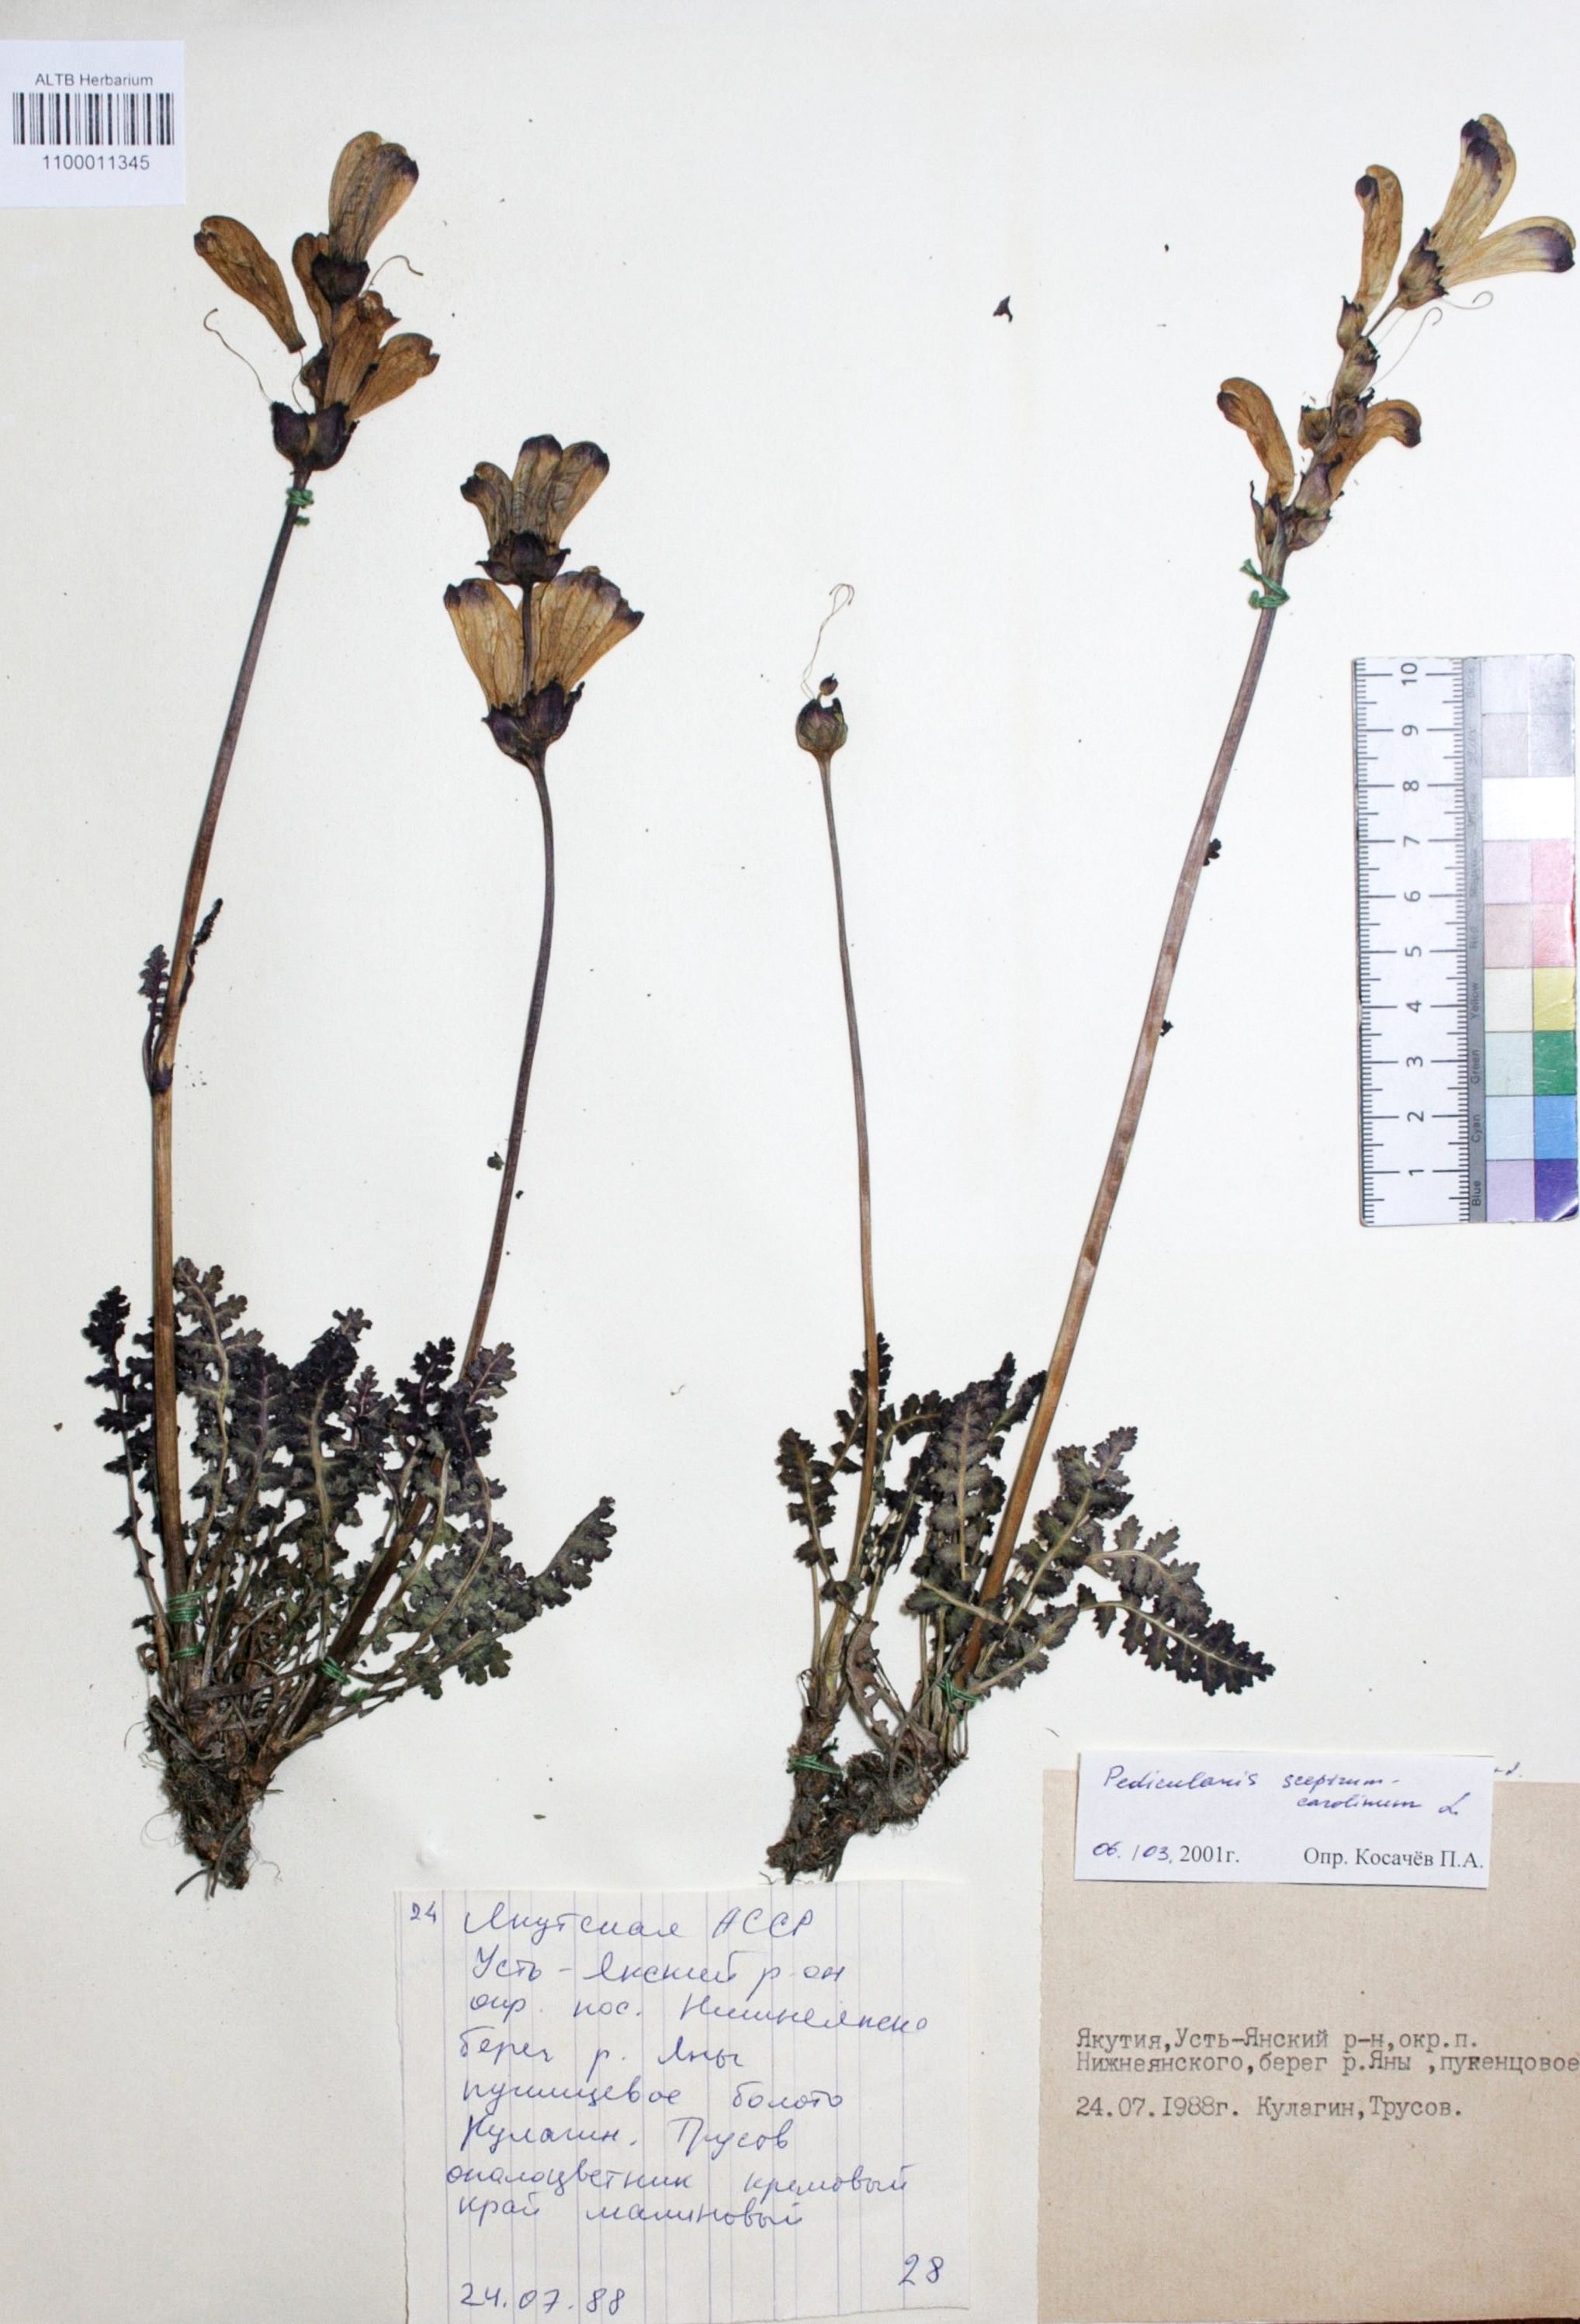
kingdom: Plantae
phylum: Tracheophyta
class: Magnoliopsida
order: Lamiales
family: Orobanchaceae
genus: Pedicularis
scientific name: Pedicularis sceptrum-carolinum
